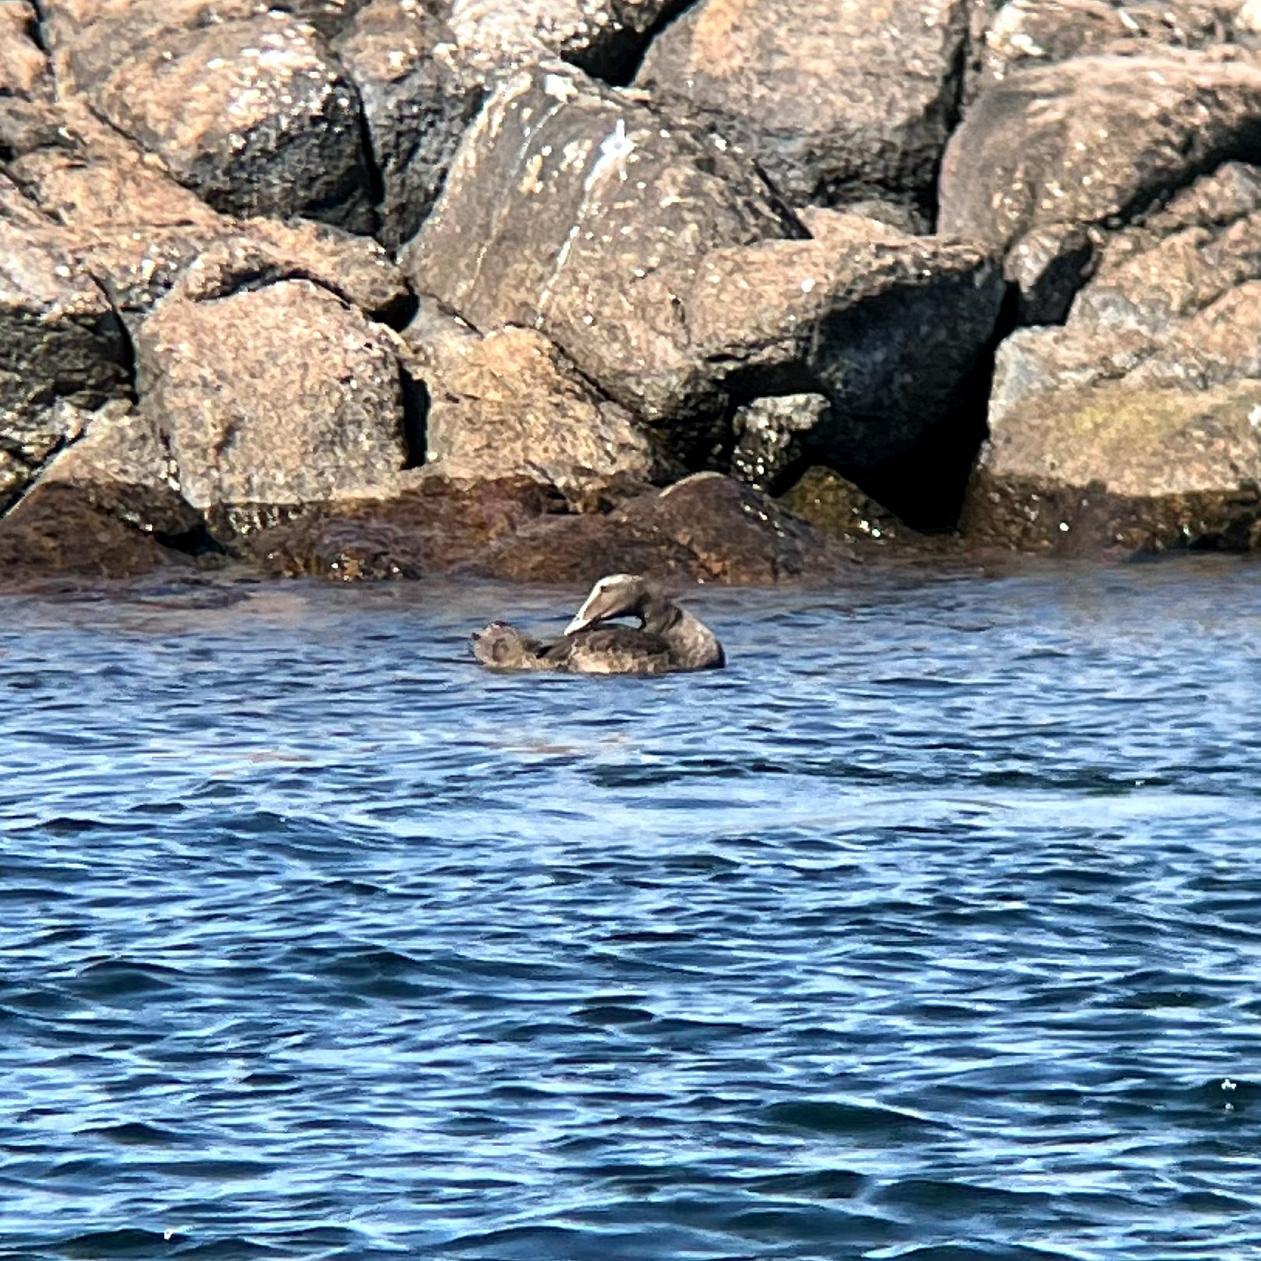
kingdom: Animalia
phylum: Chordata
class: Aves
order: Anseriformes
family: Anatidae
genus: Somateria
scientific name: Somateria mollissima
